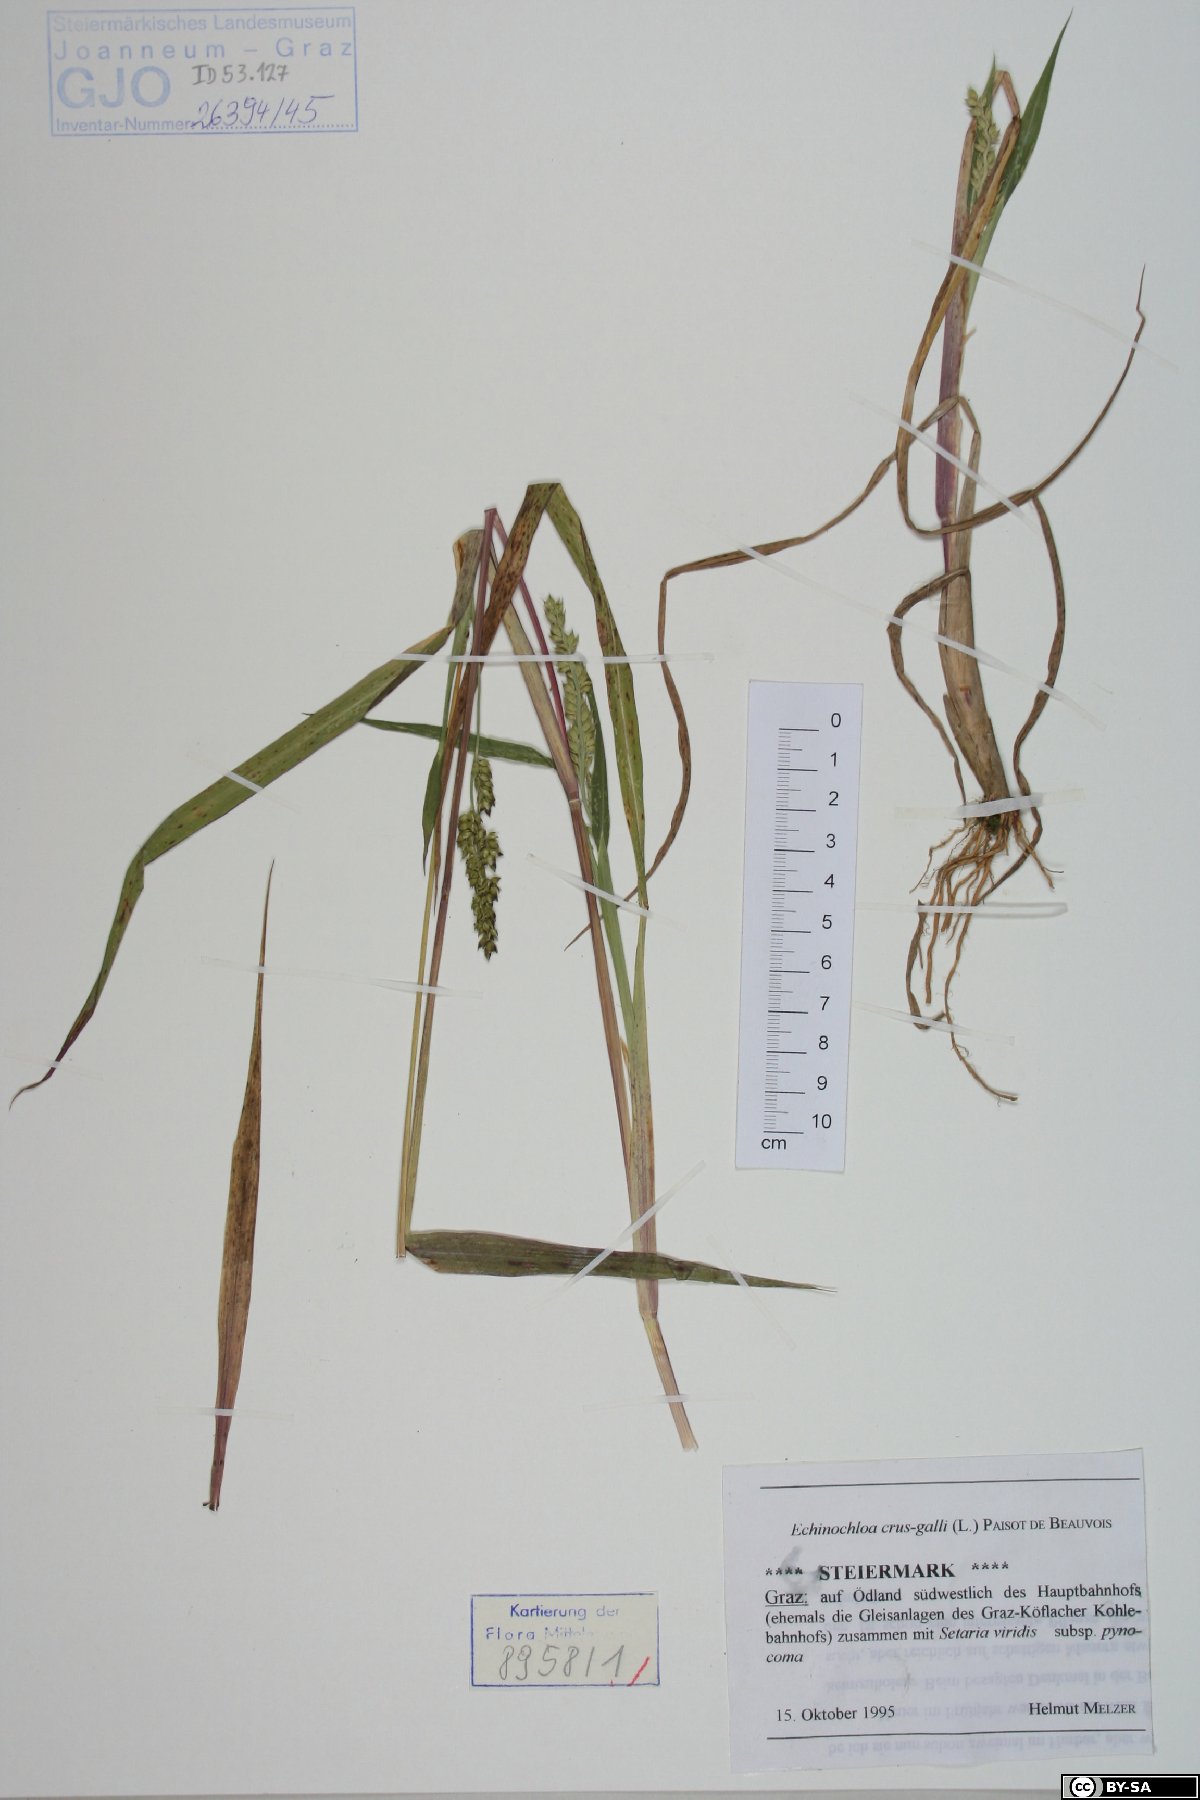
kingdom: Plantae
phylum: Tracheophyta
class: Liliopsida
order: Poales
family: Poaceae
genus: Echinochloa
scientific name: Echinochloa crus-galli
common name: Cockspur
